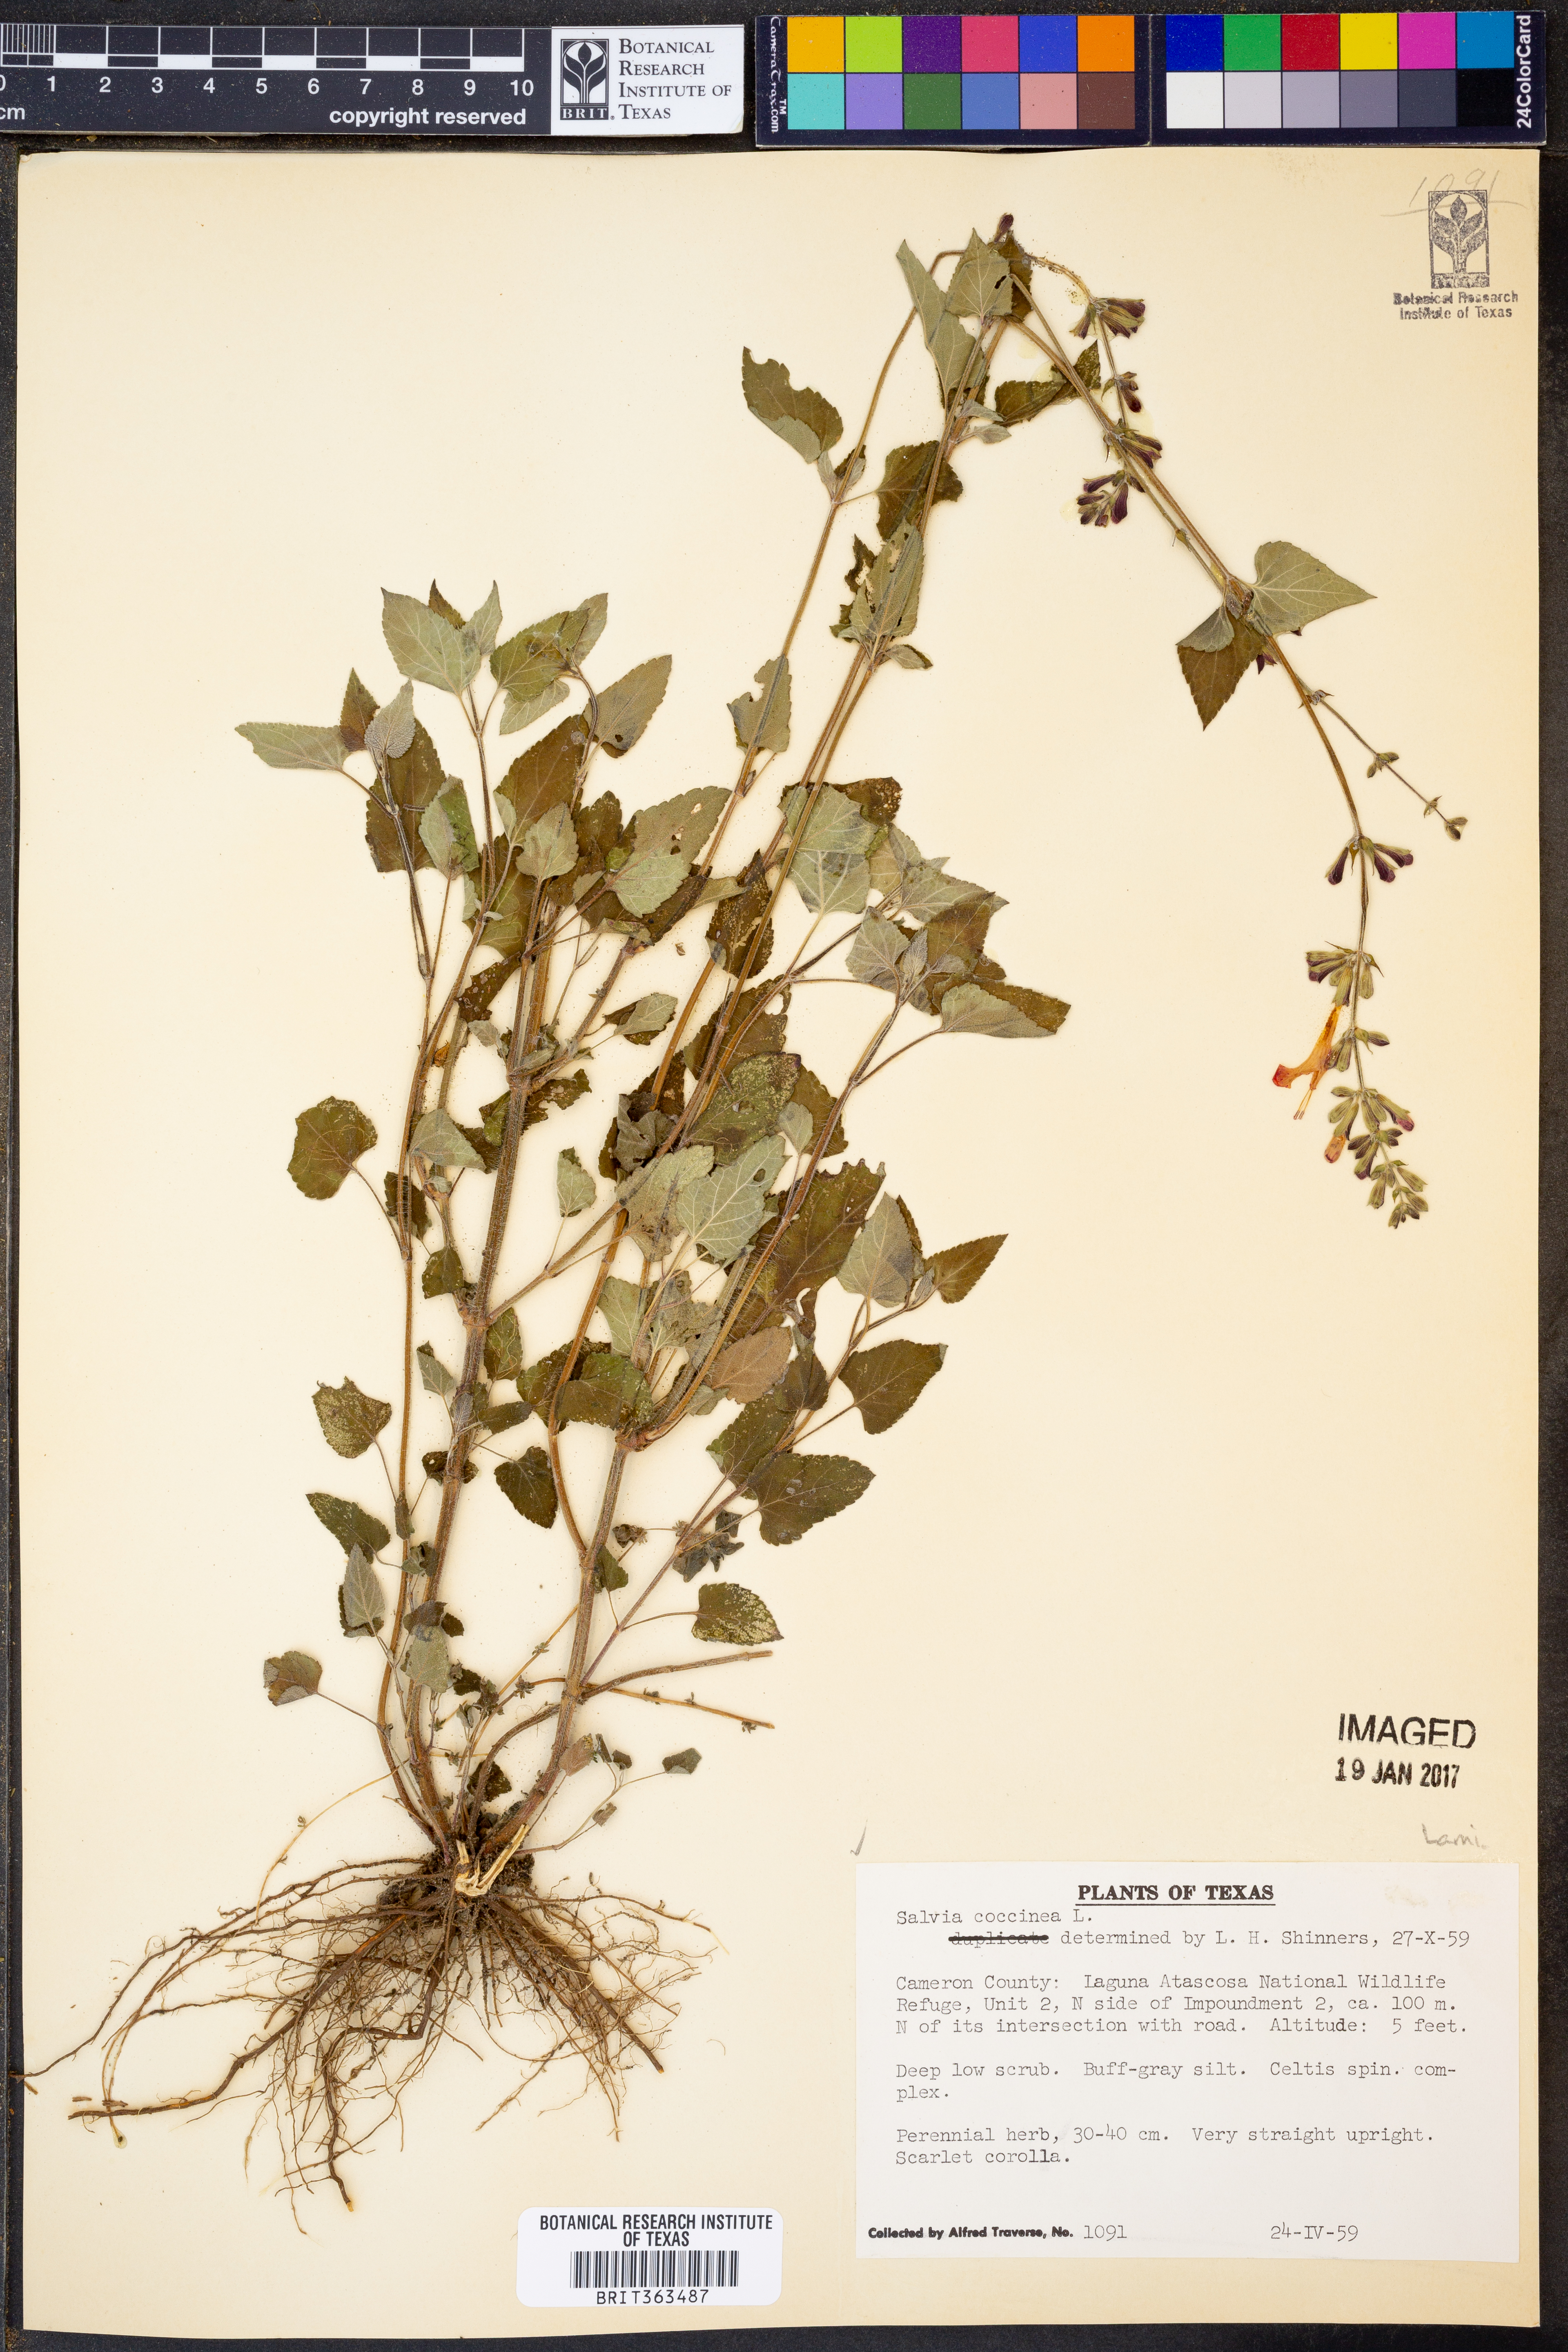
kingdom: Plantae
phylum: Tracheophyta
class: Magnoliopsida
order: Lamiales
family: Lamiaceae
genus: Salvia
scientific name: Salvia coccinea
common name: Blood sage
